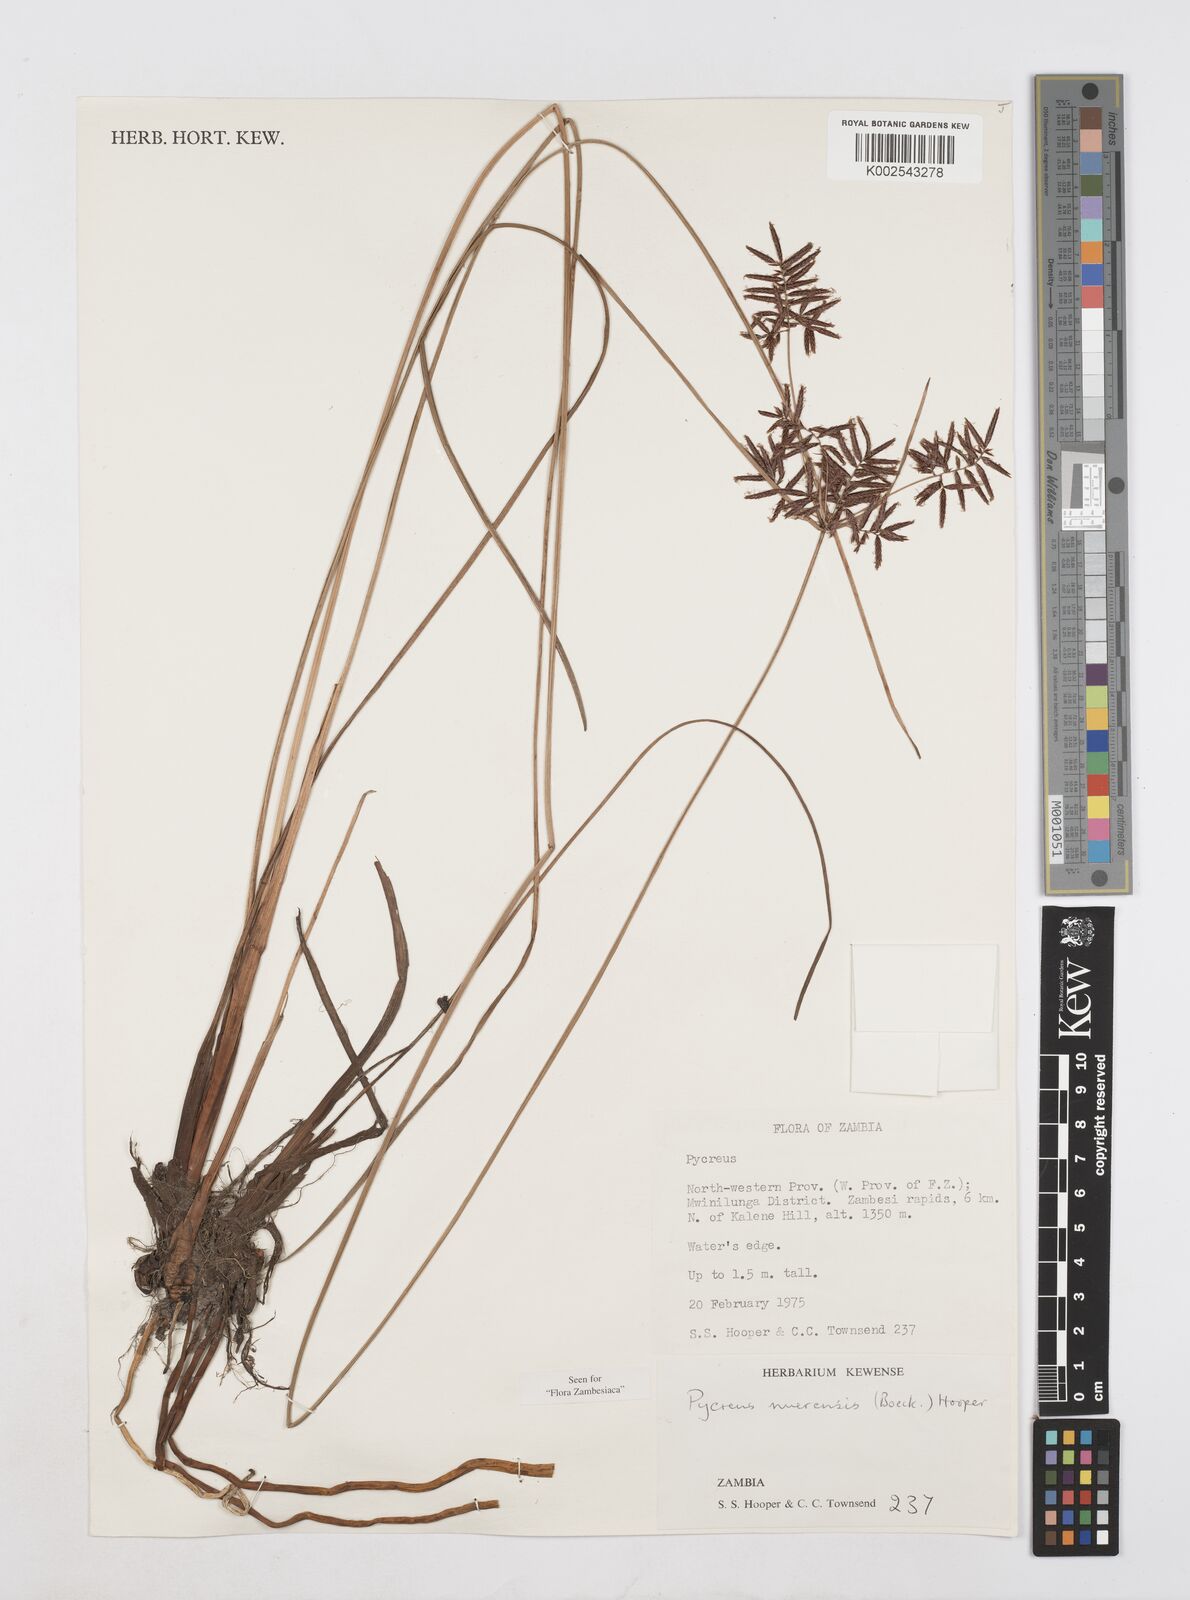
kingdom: Plantae
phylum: Tracheophyta
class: Liliopsida
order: Poales
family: Cyperaceae
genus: Cyperus
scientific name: Cyperus nuerensis
